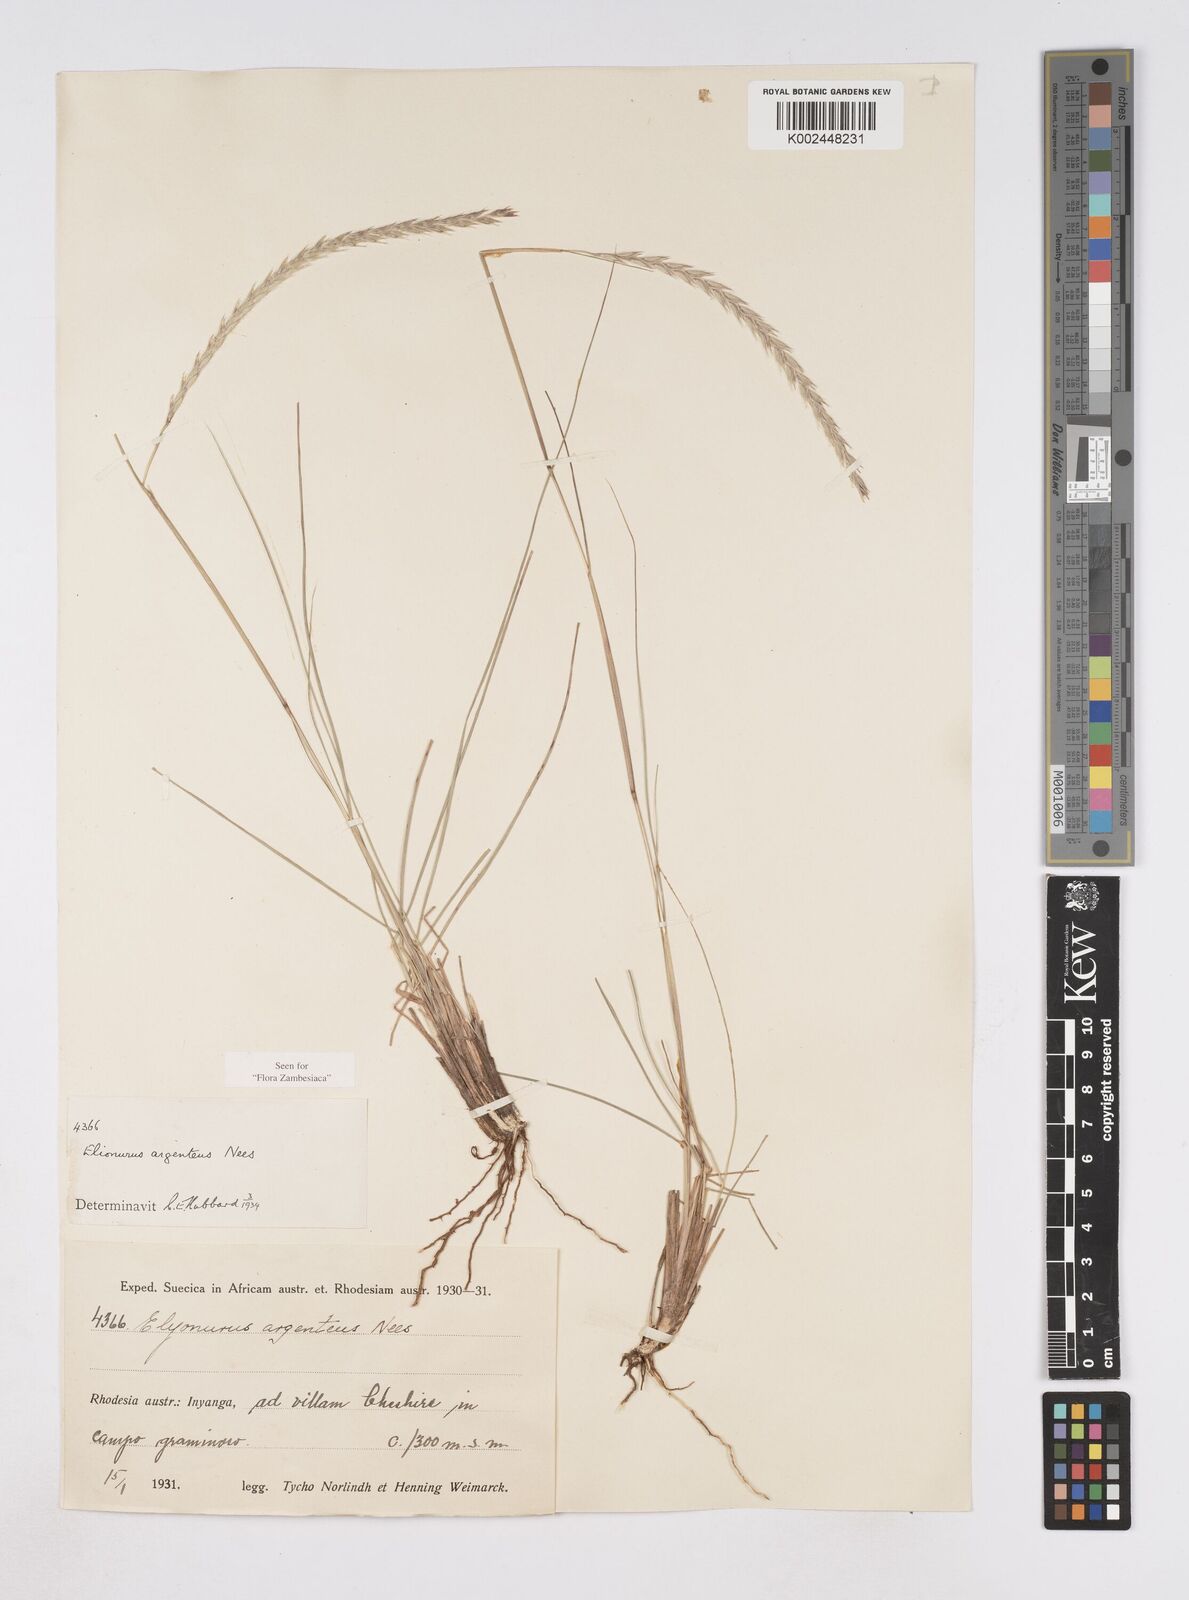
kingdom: Plantae
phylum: Tracheophyta
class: Liliopsida
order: Poales
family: Poaceae
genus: Elionurus
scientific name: Elionurus muticus
